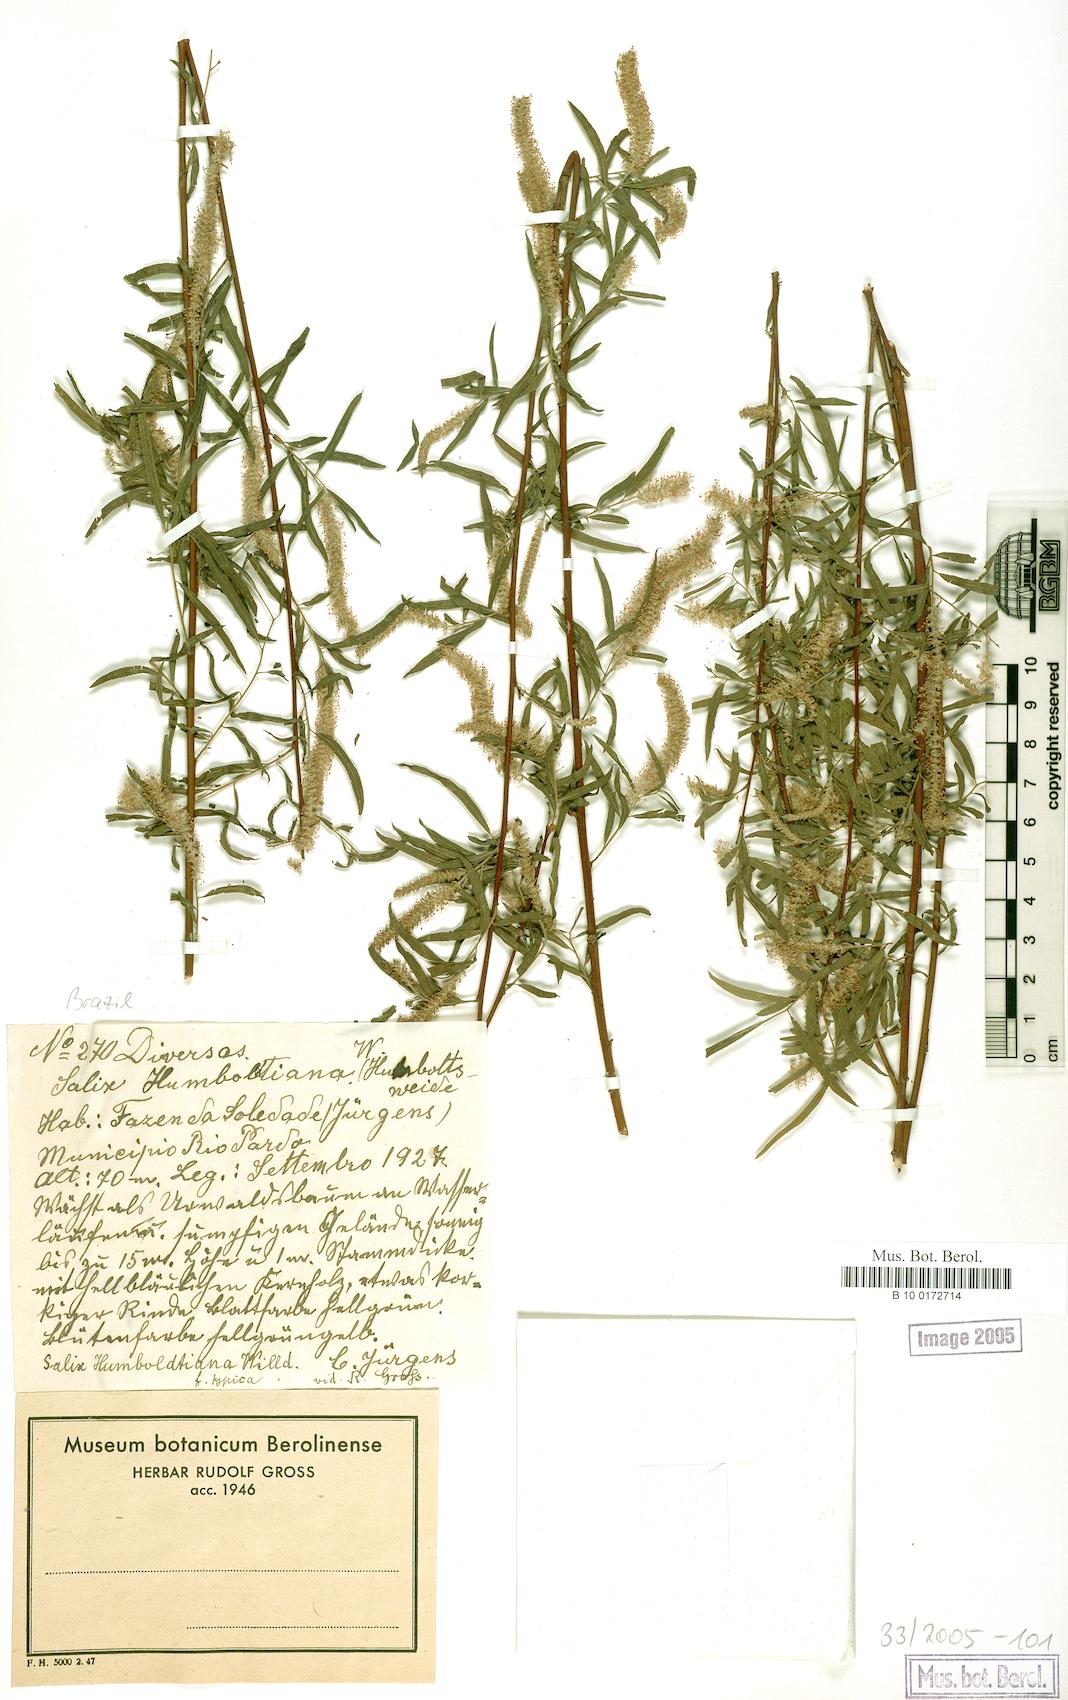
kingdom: Plantae
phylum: Tracheophyta
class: Magnoliopsida
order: Malpighiales
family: Salicaceae
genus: Salix
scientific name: Salix humboldtiana
